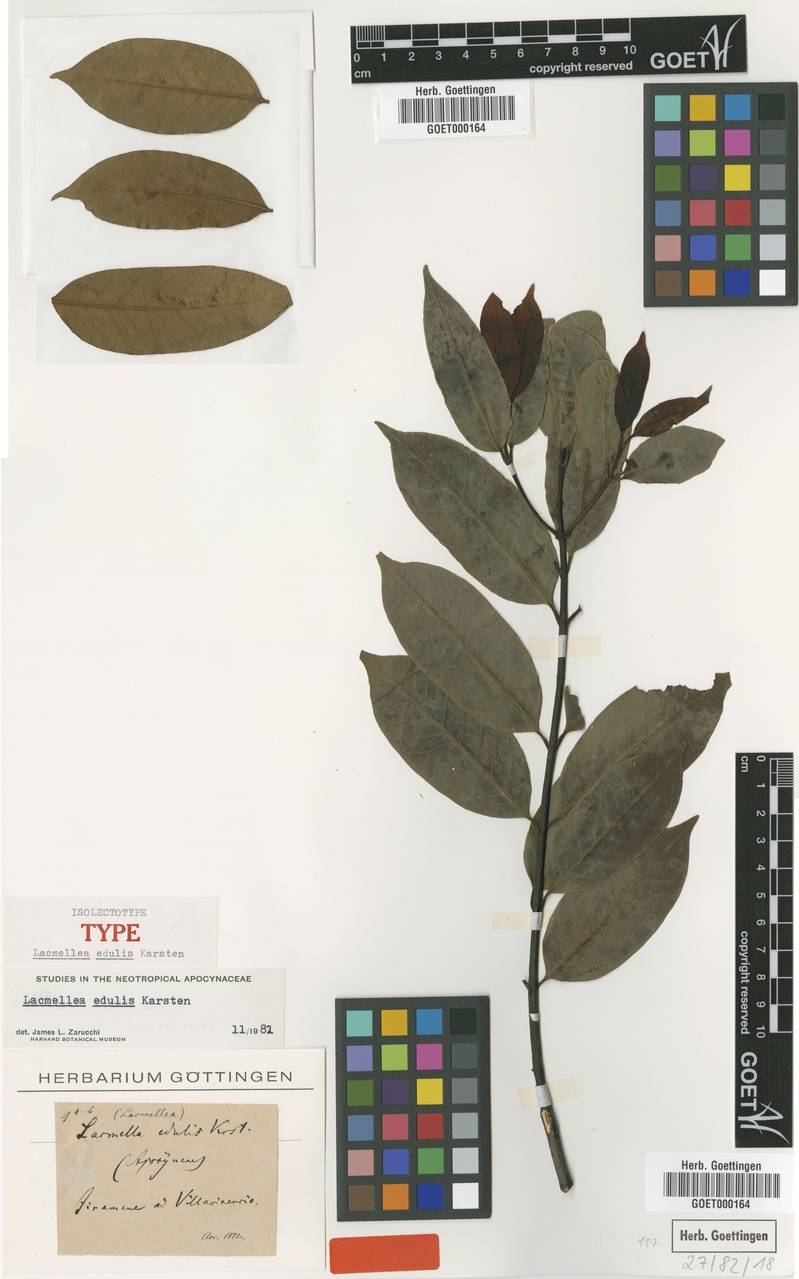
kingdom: Plantae
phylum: Tracheophyta
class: Magnoliopsida
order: Gentianales
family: Apocynaceae
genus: Lacmellea
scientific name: Lacmellea edulis
